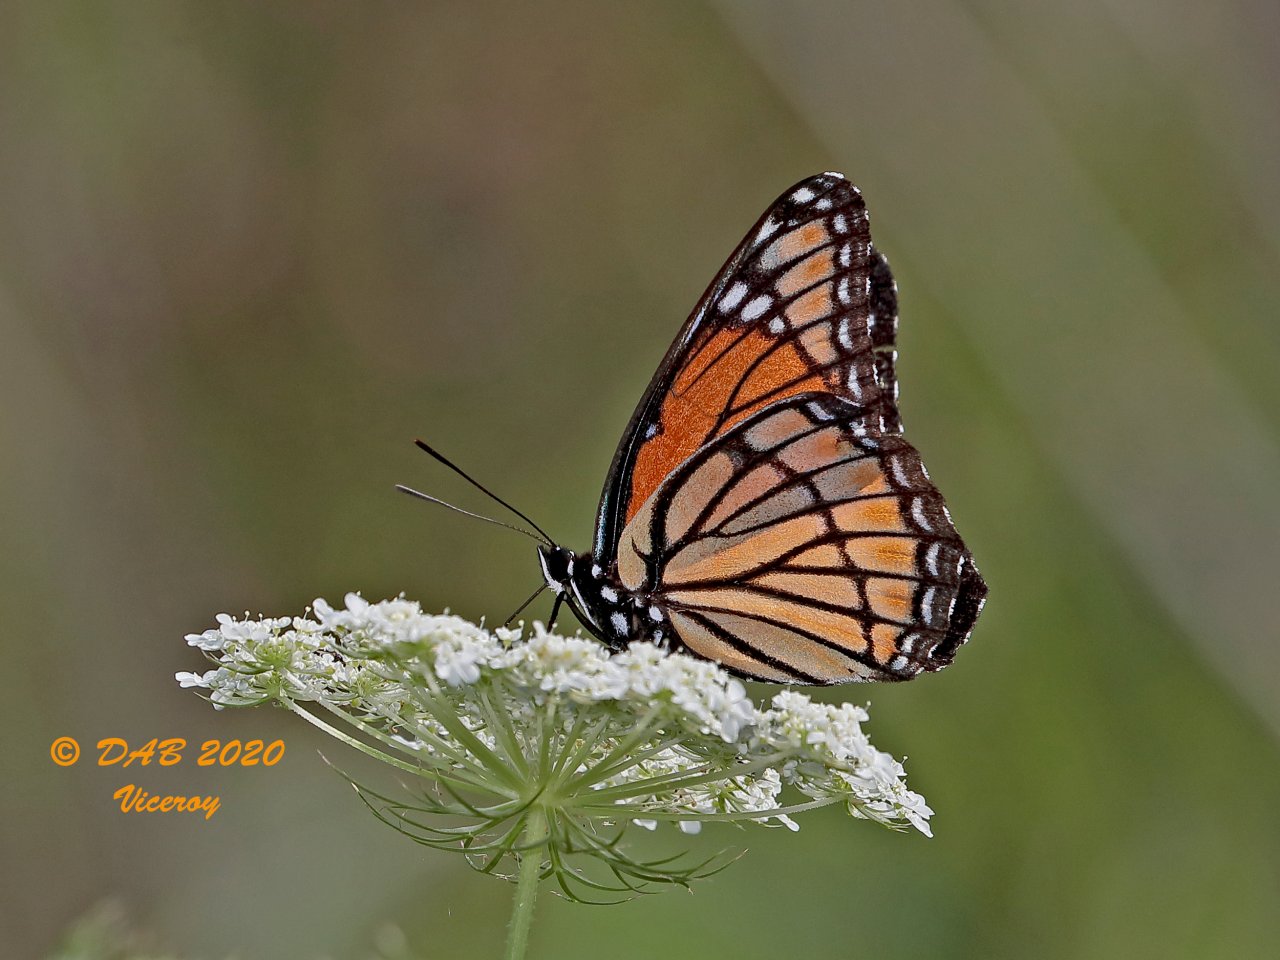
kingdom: Animalia
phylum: Arthropoda
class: Insecta
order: Lepidoptera
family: Nymphalidae
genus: Limenitis
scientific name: Limenitis archippus
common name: Viceroy
